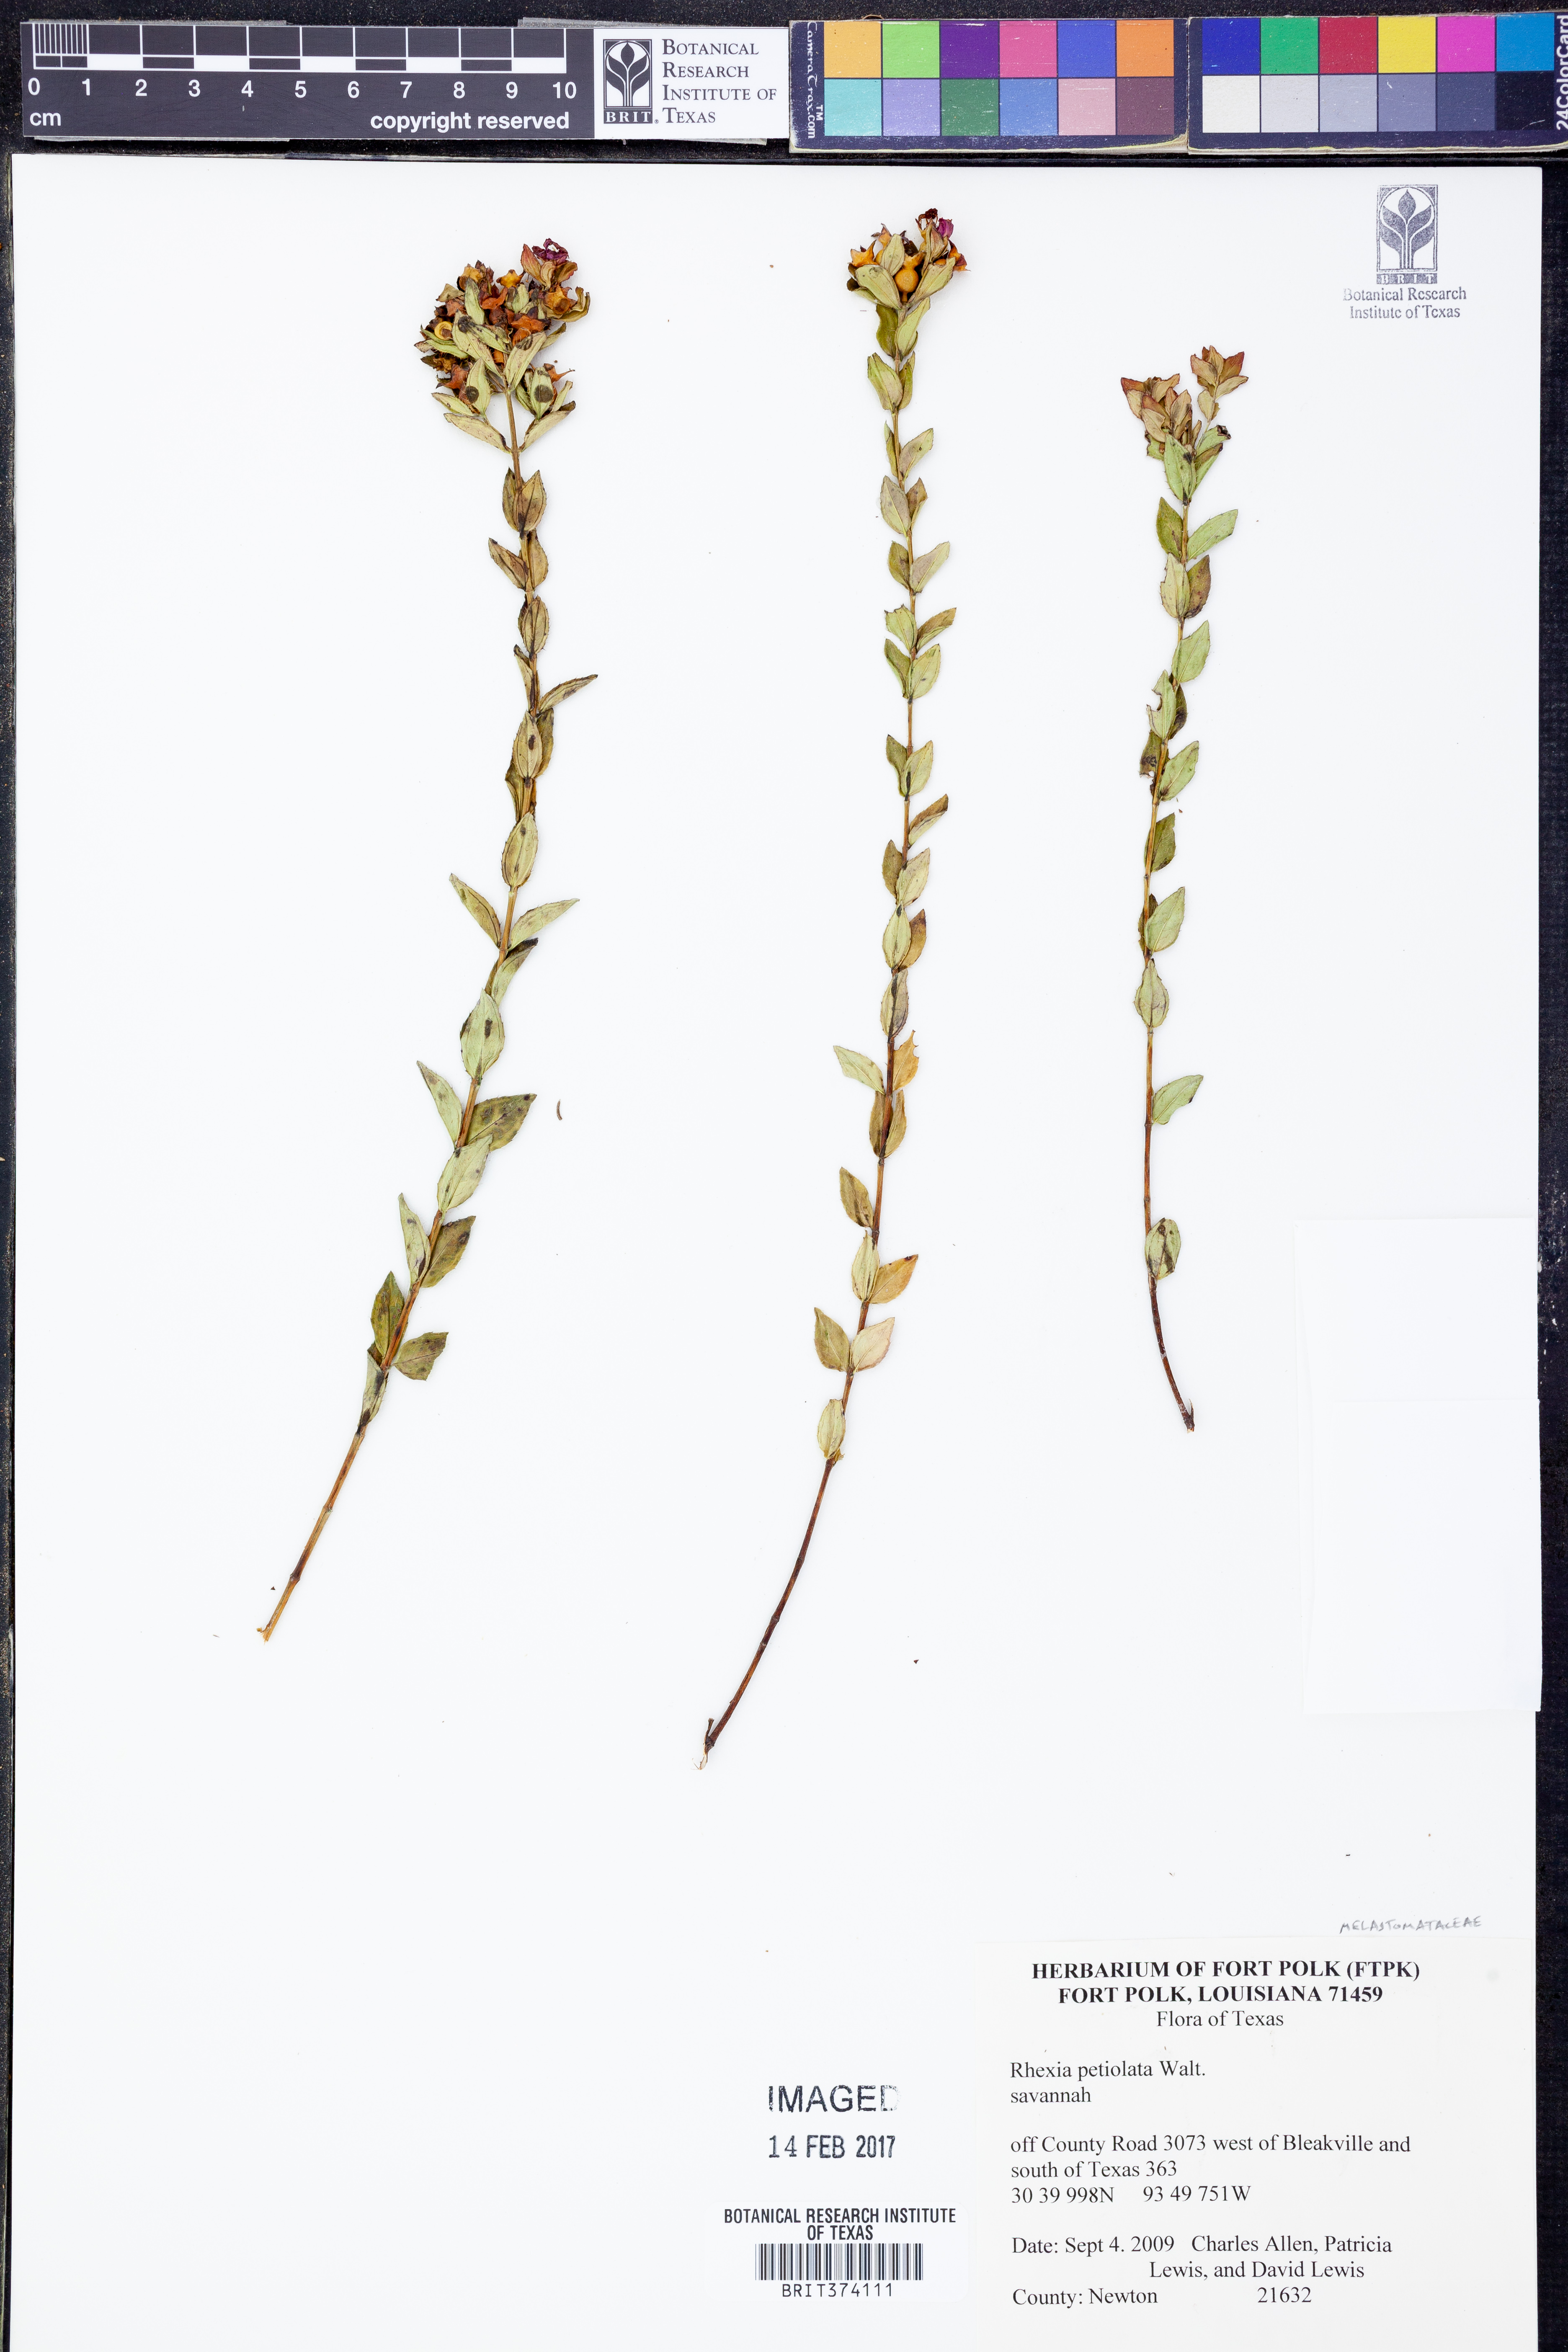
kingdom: Plantae
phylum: Tracheophyta
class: Magnoliopsida
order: Myrtales
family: Melastomataceae
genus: Rhexia
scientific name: Rhexia petiolata
